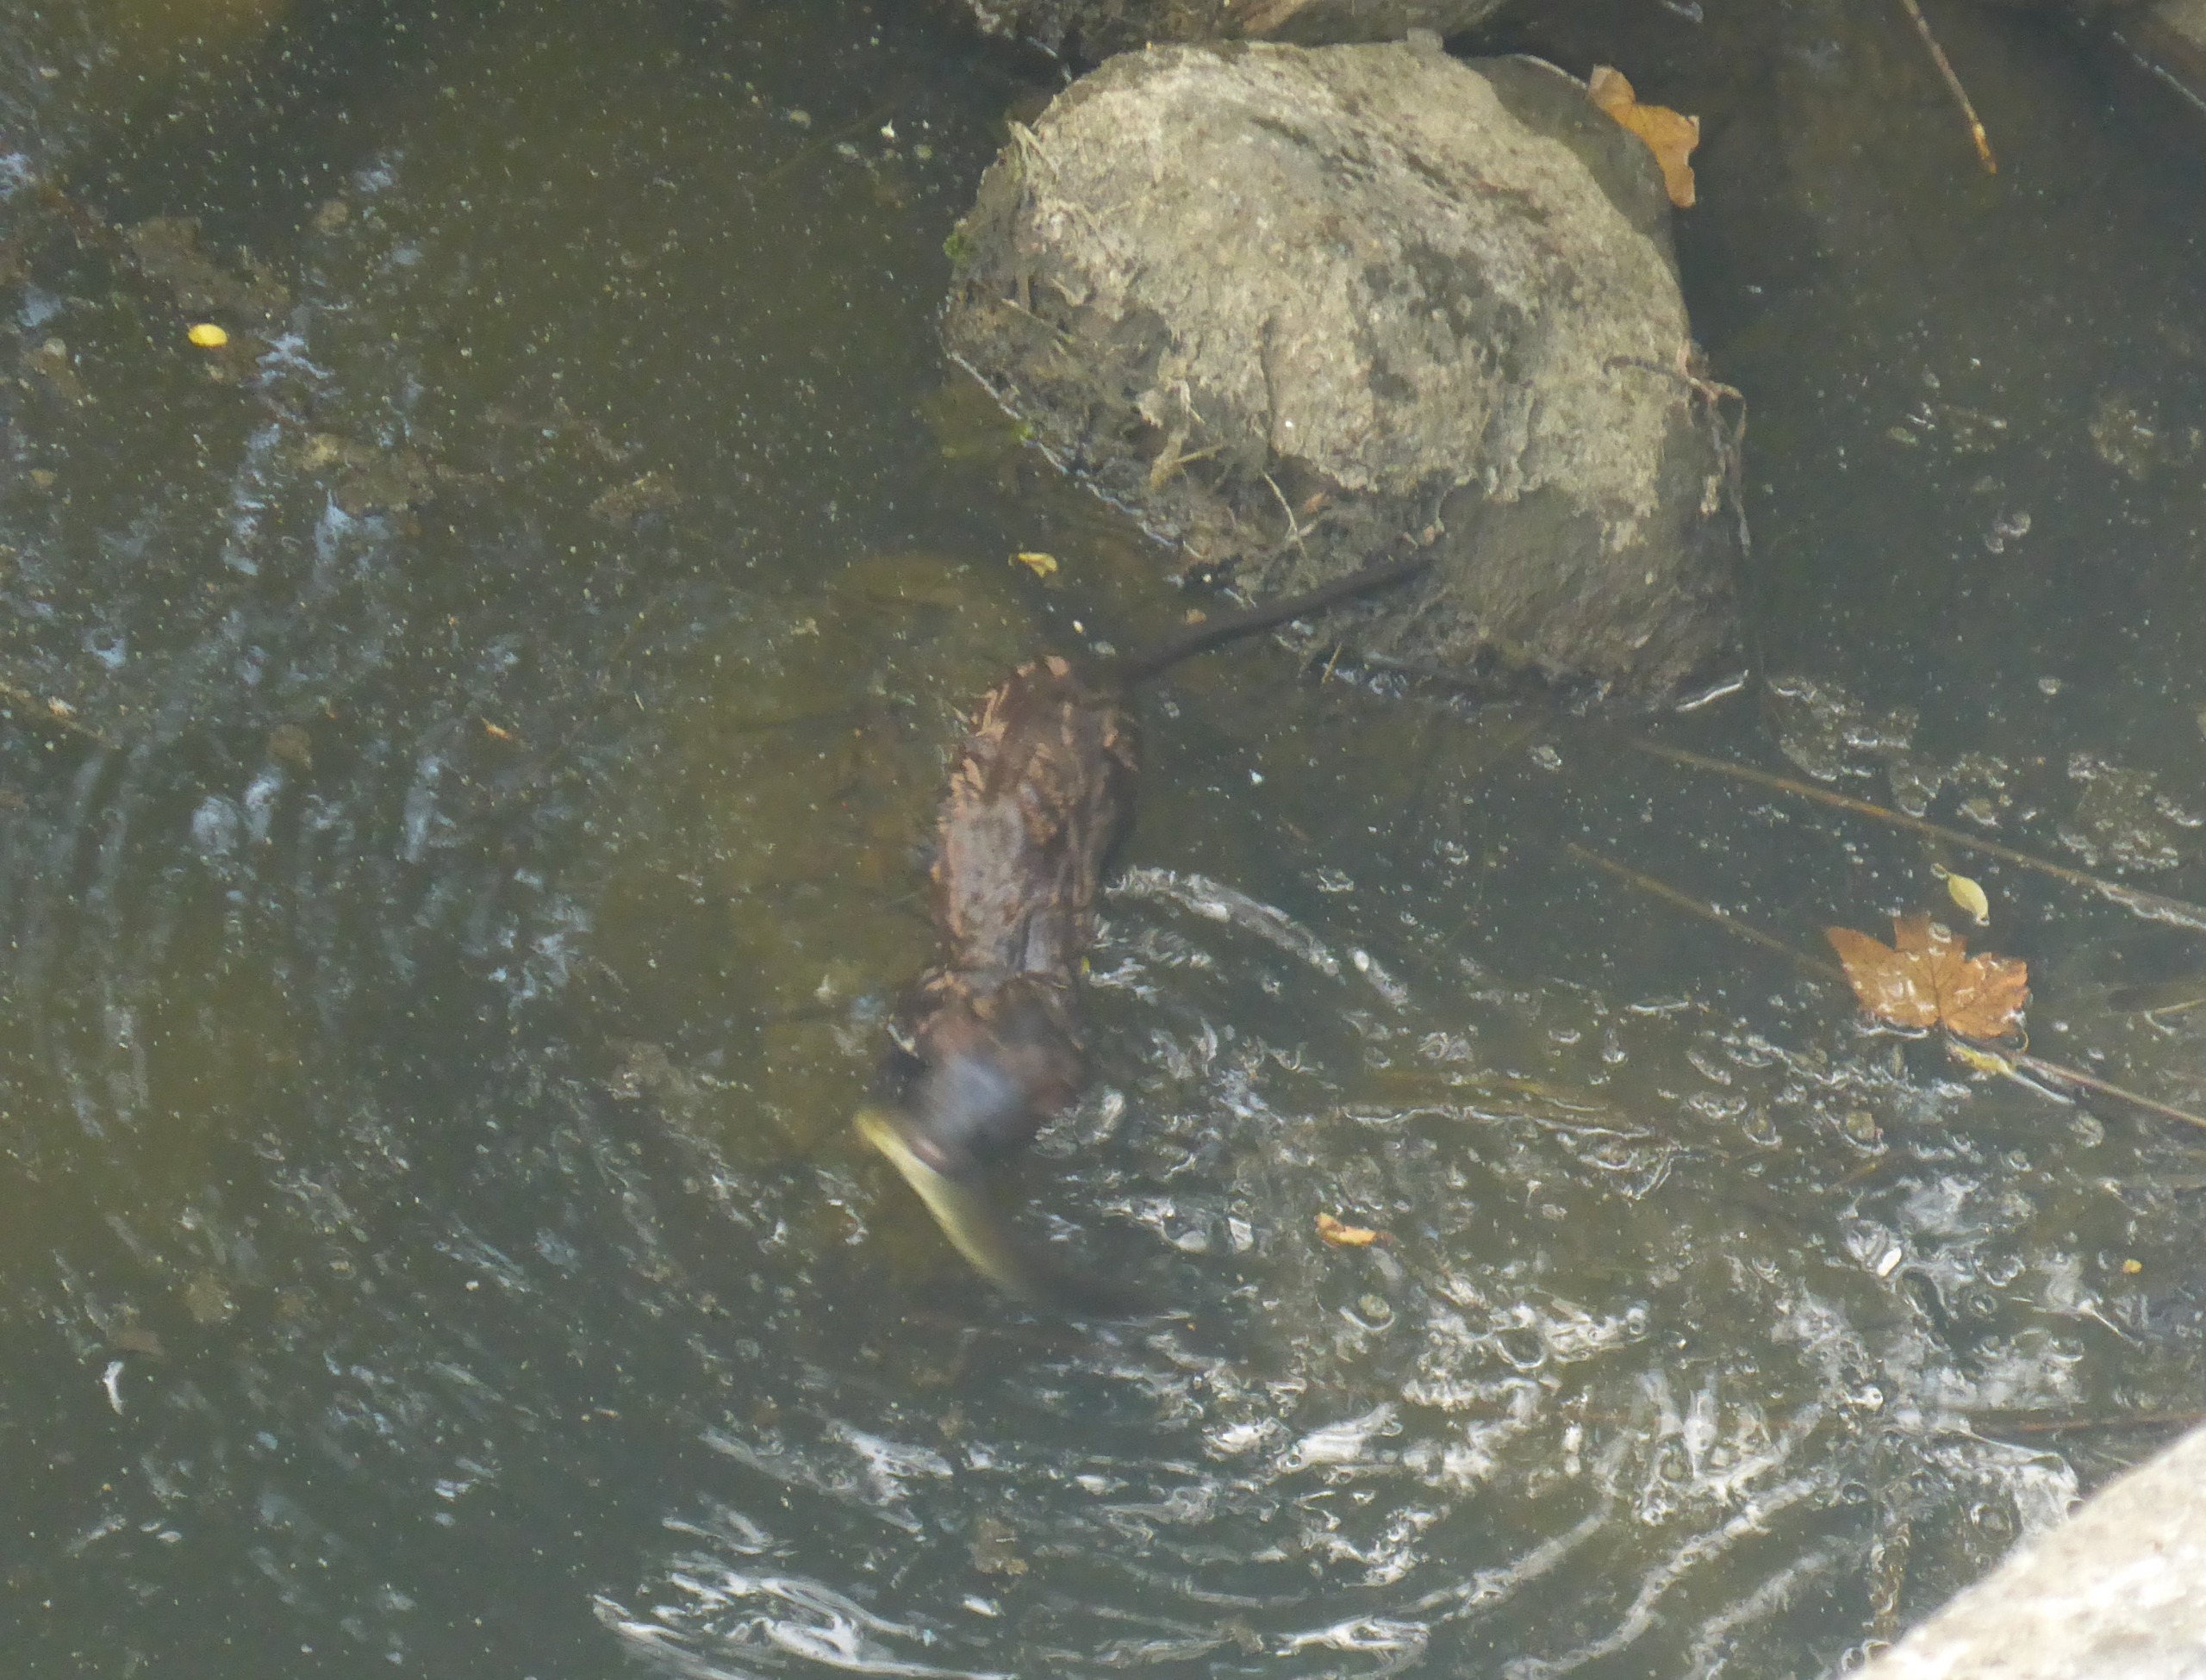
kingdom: Animalia
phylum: Chordata
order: Anguilliformes
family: Anguillidae
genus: Anguilla
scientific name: Anguilla anguilla
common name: Europæisk ål
